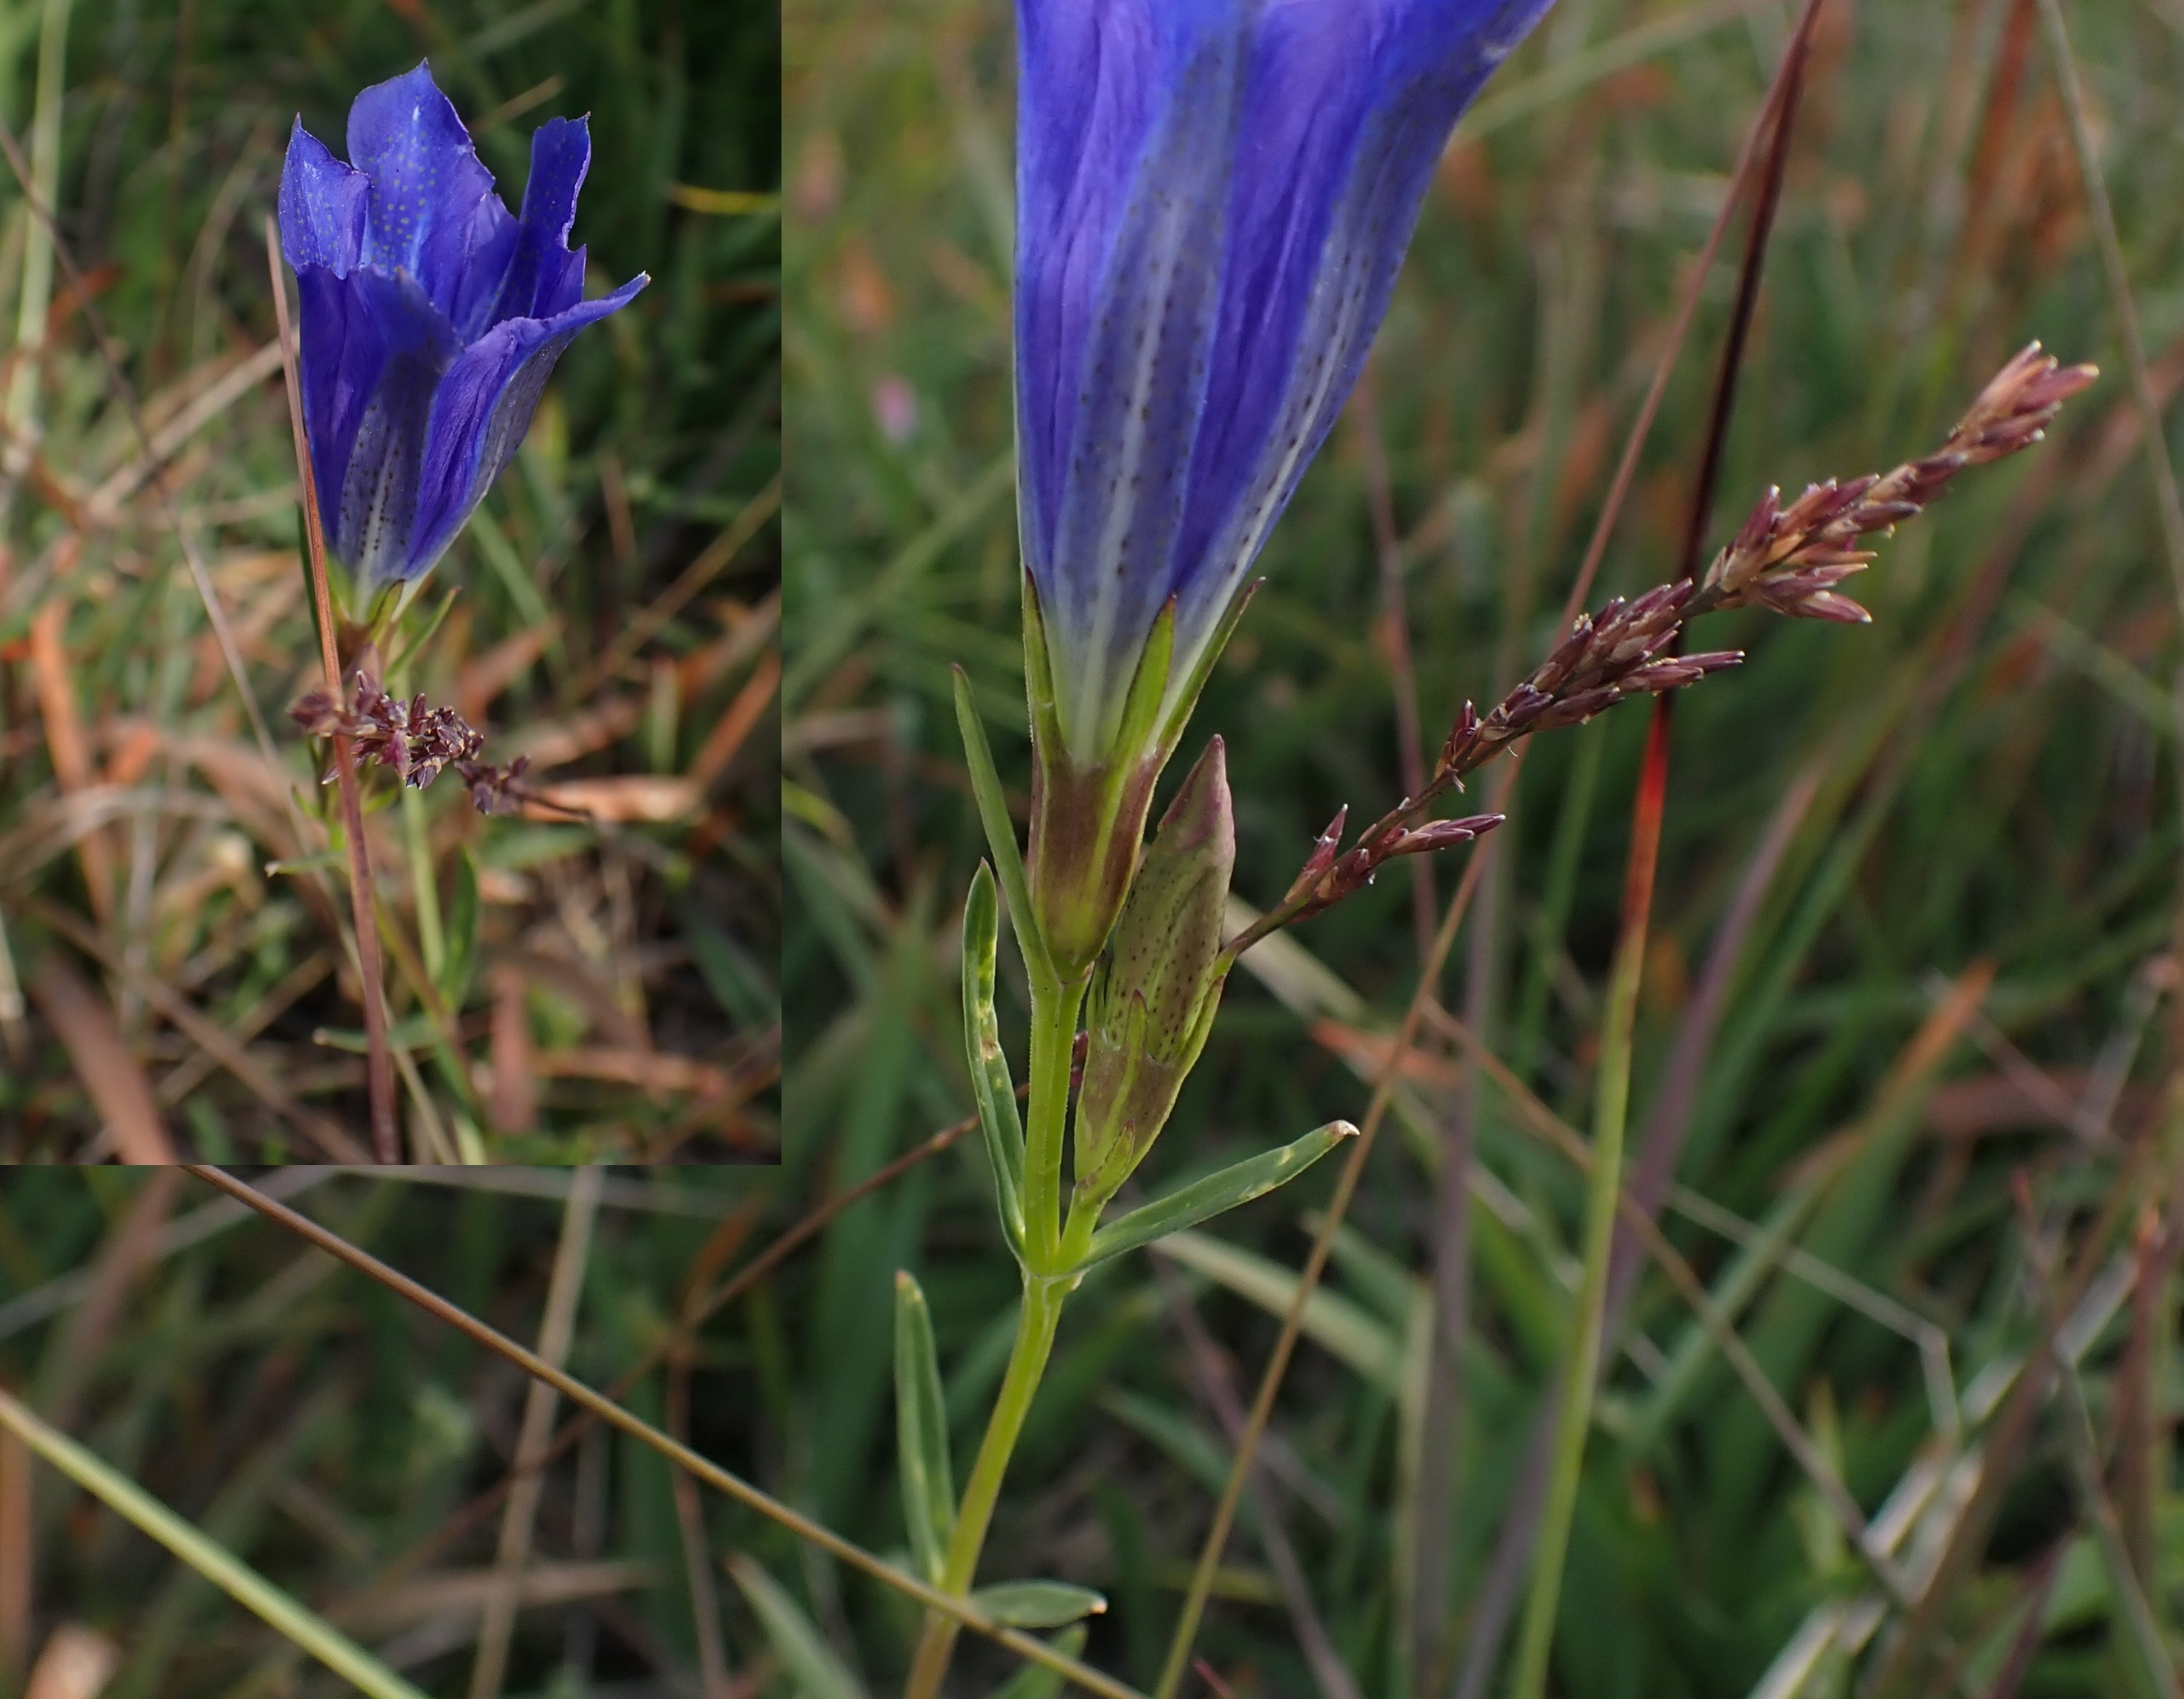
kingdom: Plantae
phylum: Tracheophyta
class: Magnoliopsida
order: Gentianales
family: Gentianaceae
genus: Gentiana
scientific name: Gentiana pneumonanthe
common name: Klokke-ensian
